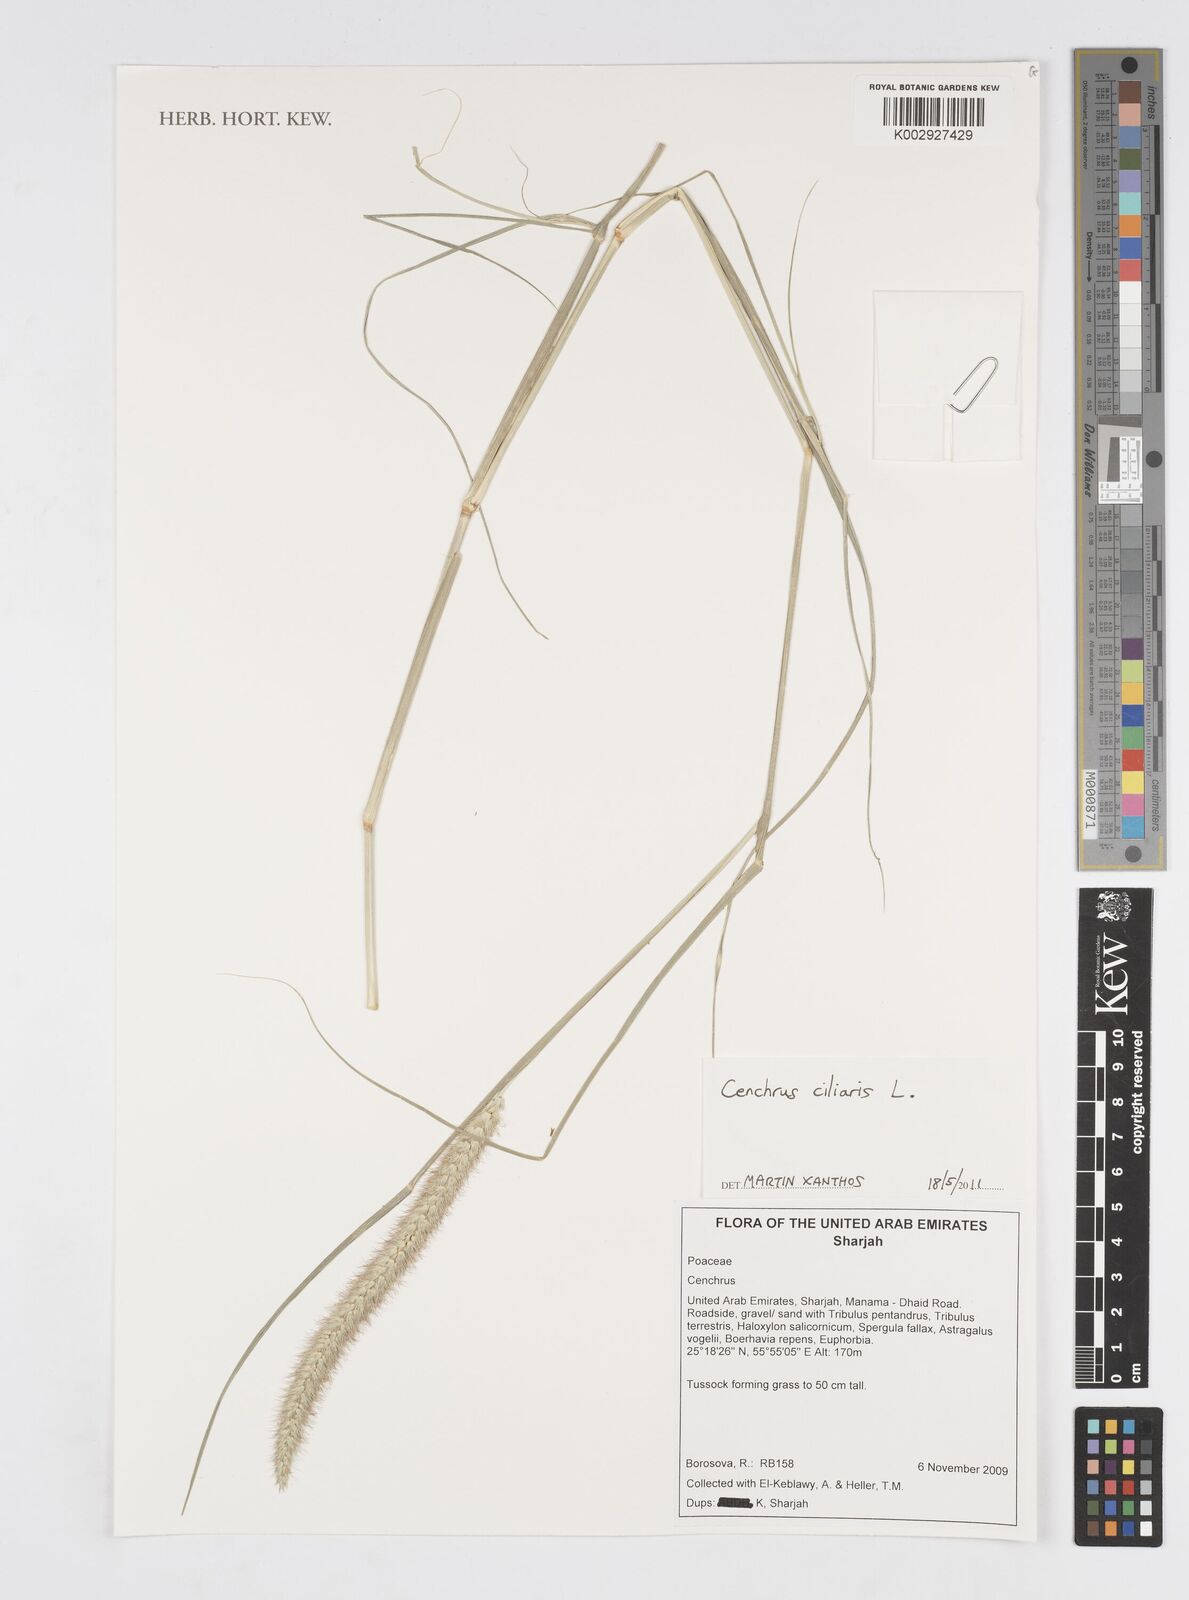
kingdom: Plantae
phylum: Tracheophyta
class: Liliopsida
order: Poales
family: Poaceae
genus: Cenchrus
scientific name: Cenchrus ciliaris
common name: Buffelgrass
